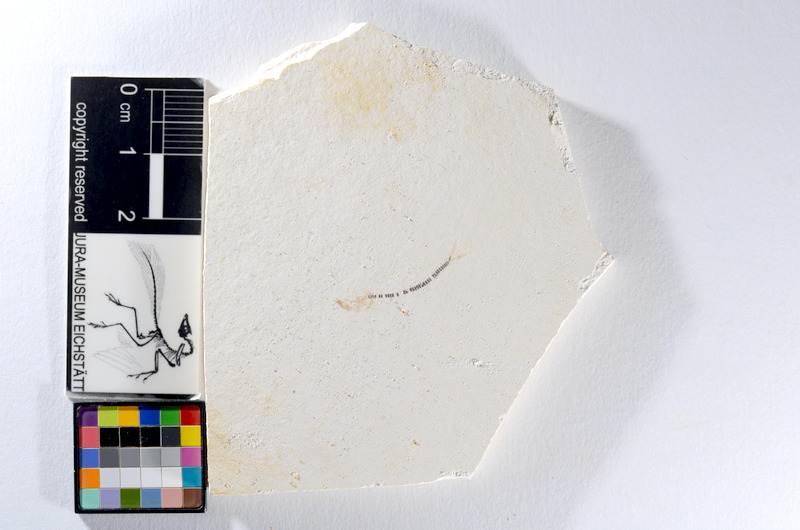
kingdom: Animalia
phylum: Chordata
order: Salmoniformes
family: Orthogonikleithridae
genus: Orthogonikleithrus
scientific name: Orthogonikleithrus hoelli
